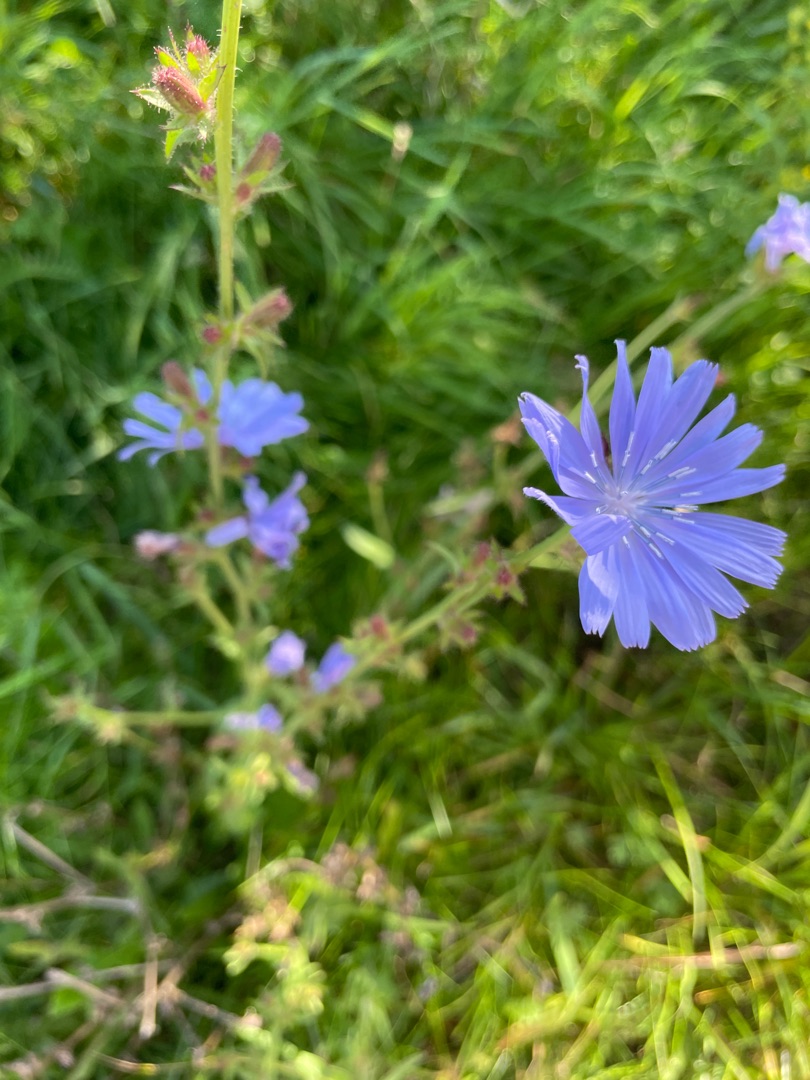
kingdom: Plantae
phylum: Tracheophyta
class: Magnoliopsida
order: Asterales
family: Asteraceae
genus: Cichorium
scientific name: Cichorium intybus
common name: Cikorie
